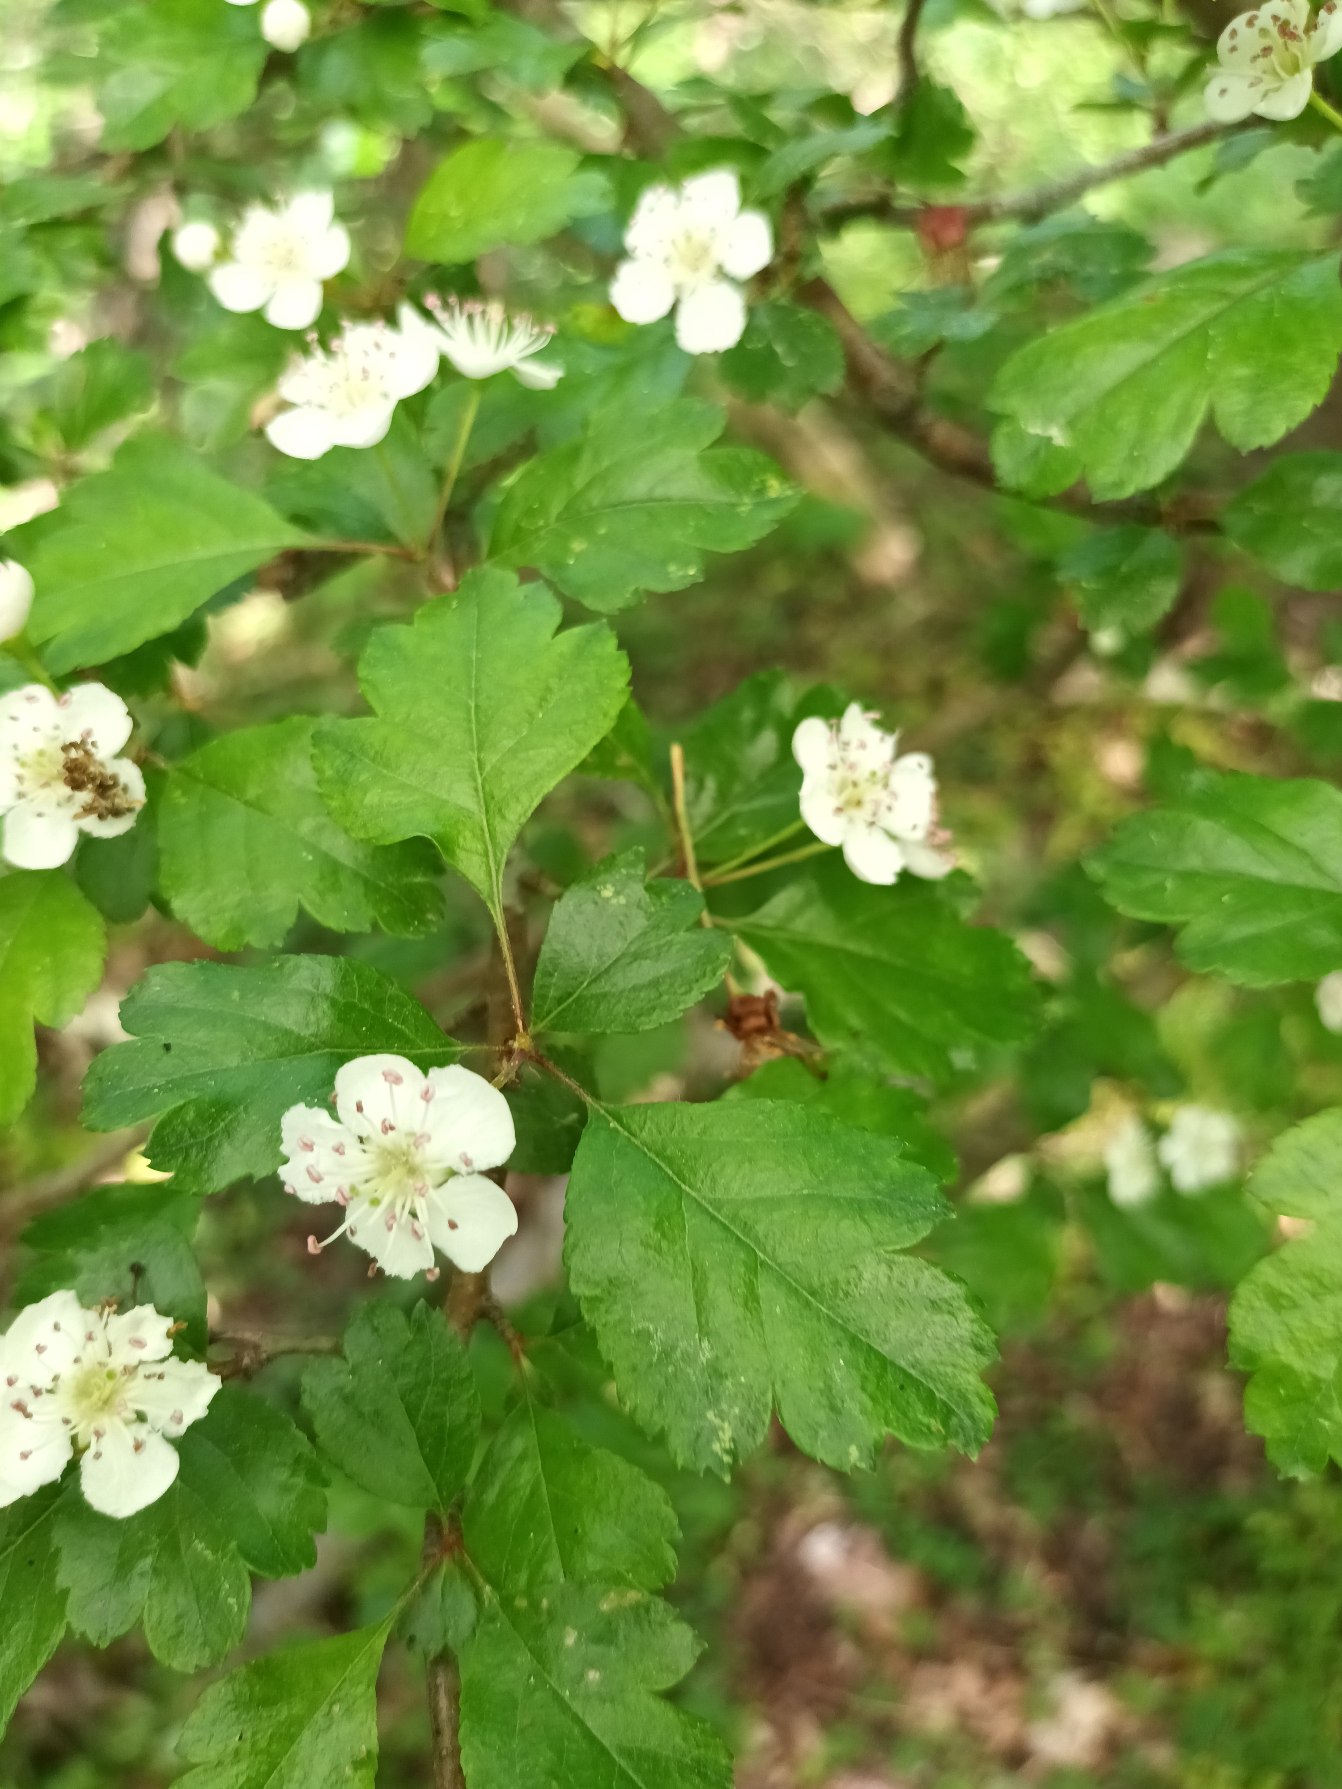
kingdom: Plantae
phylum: Tracheophyta
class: Magnoliopsida
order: Rosales
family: Rosaceae
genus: Crataegus
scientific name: Crataegus media
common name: Almindelig hvidtjørn × engriflet hvidtjørn
